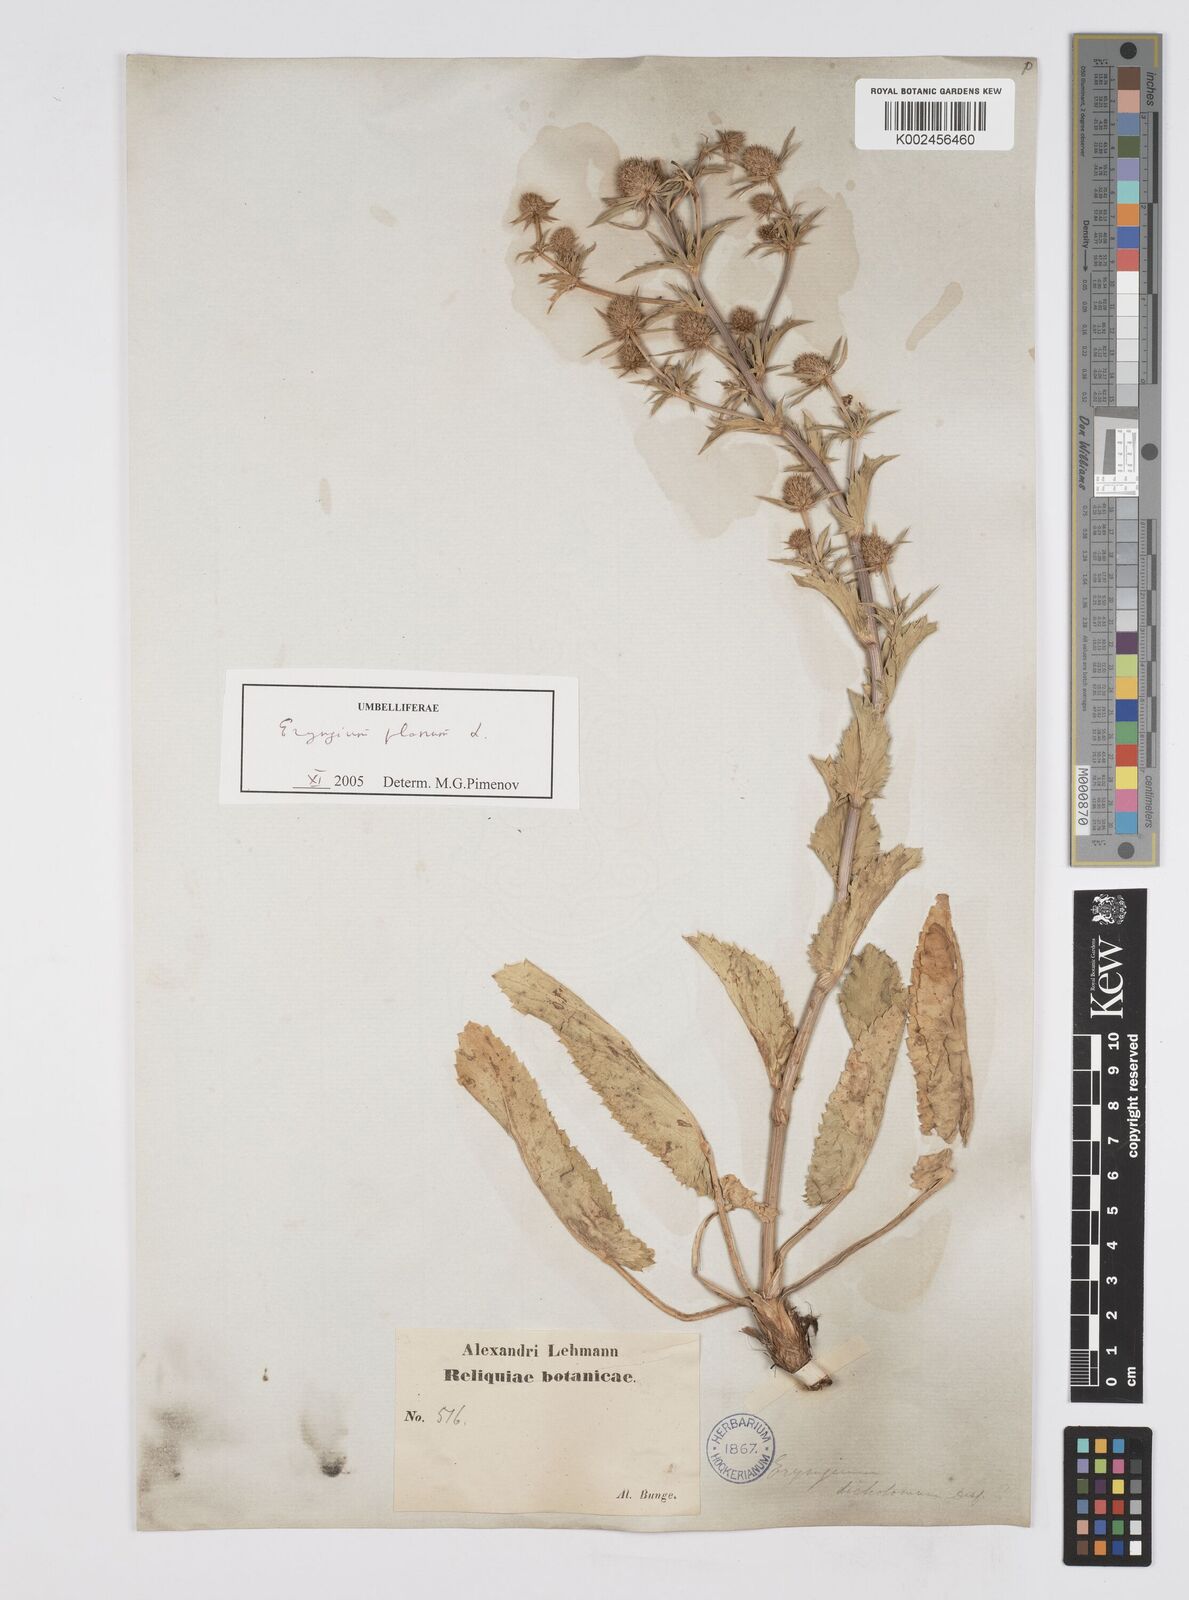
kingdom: Plantae
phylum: Tracheophyta
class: Magnoliopsida
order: Apiales
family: Apiaceae
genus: Eryngium
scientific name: Eryngium
